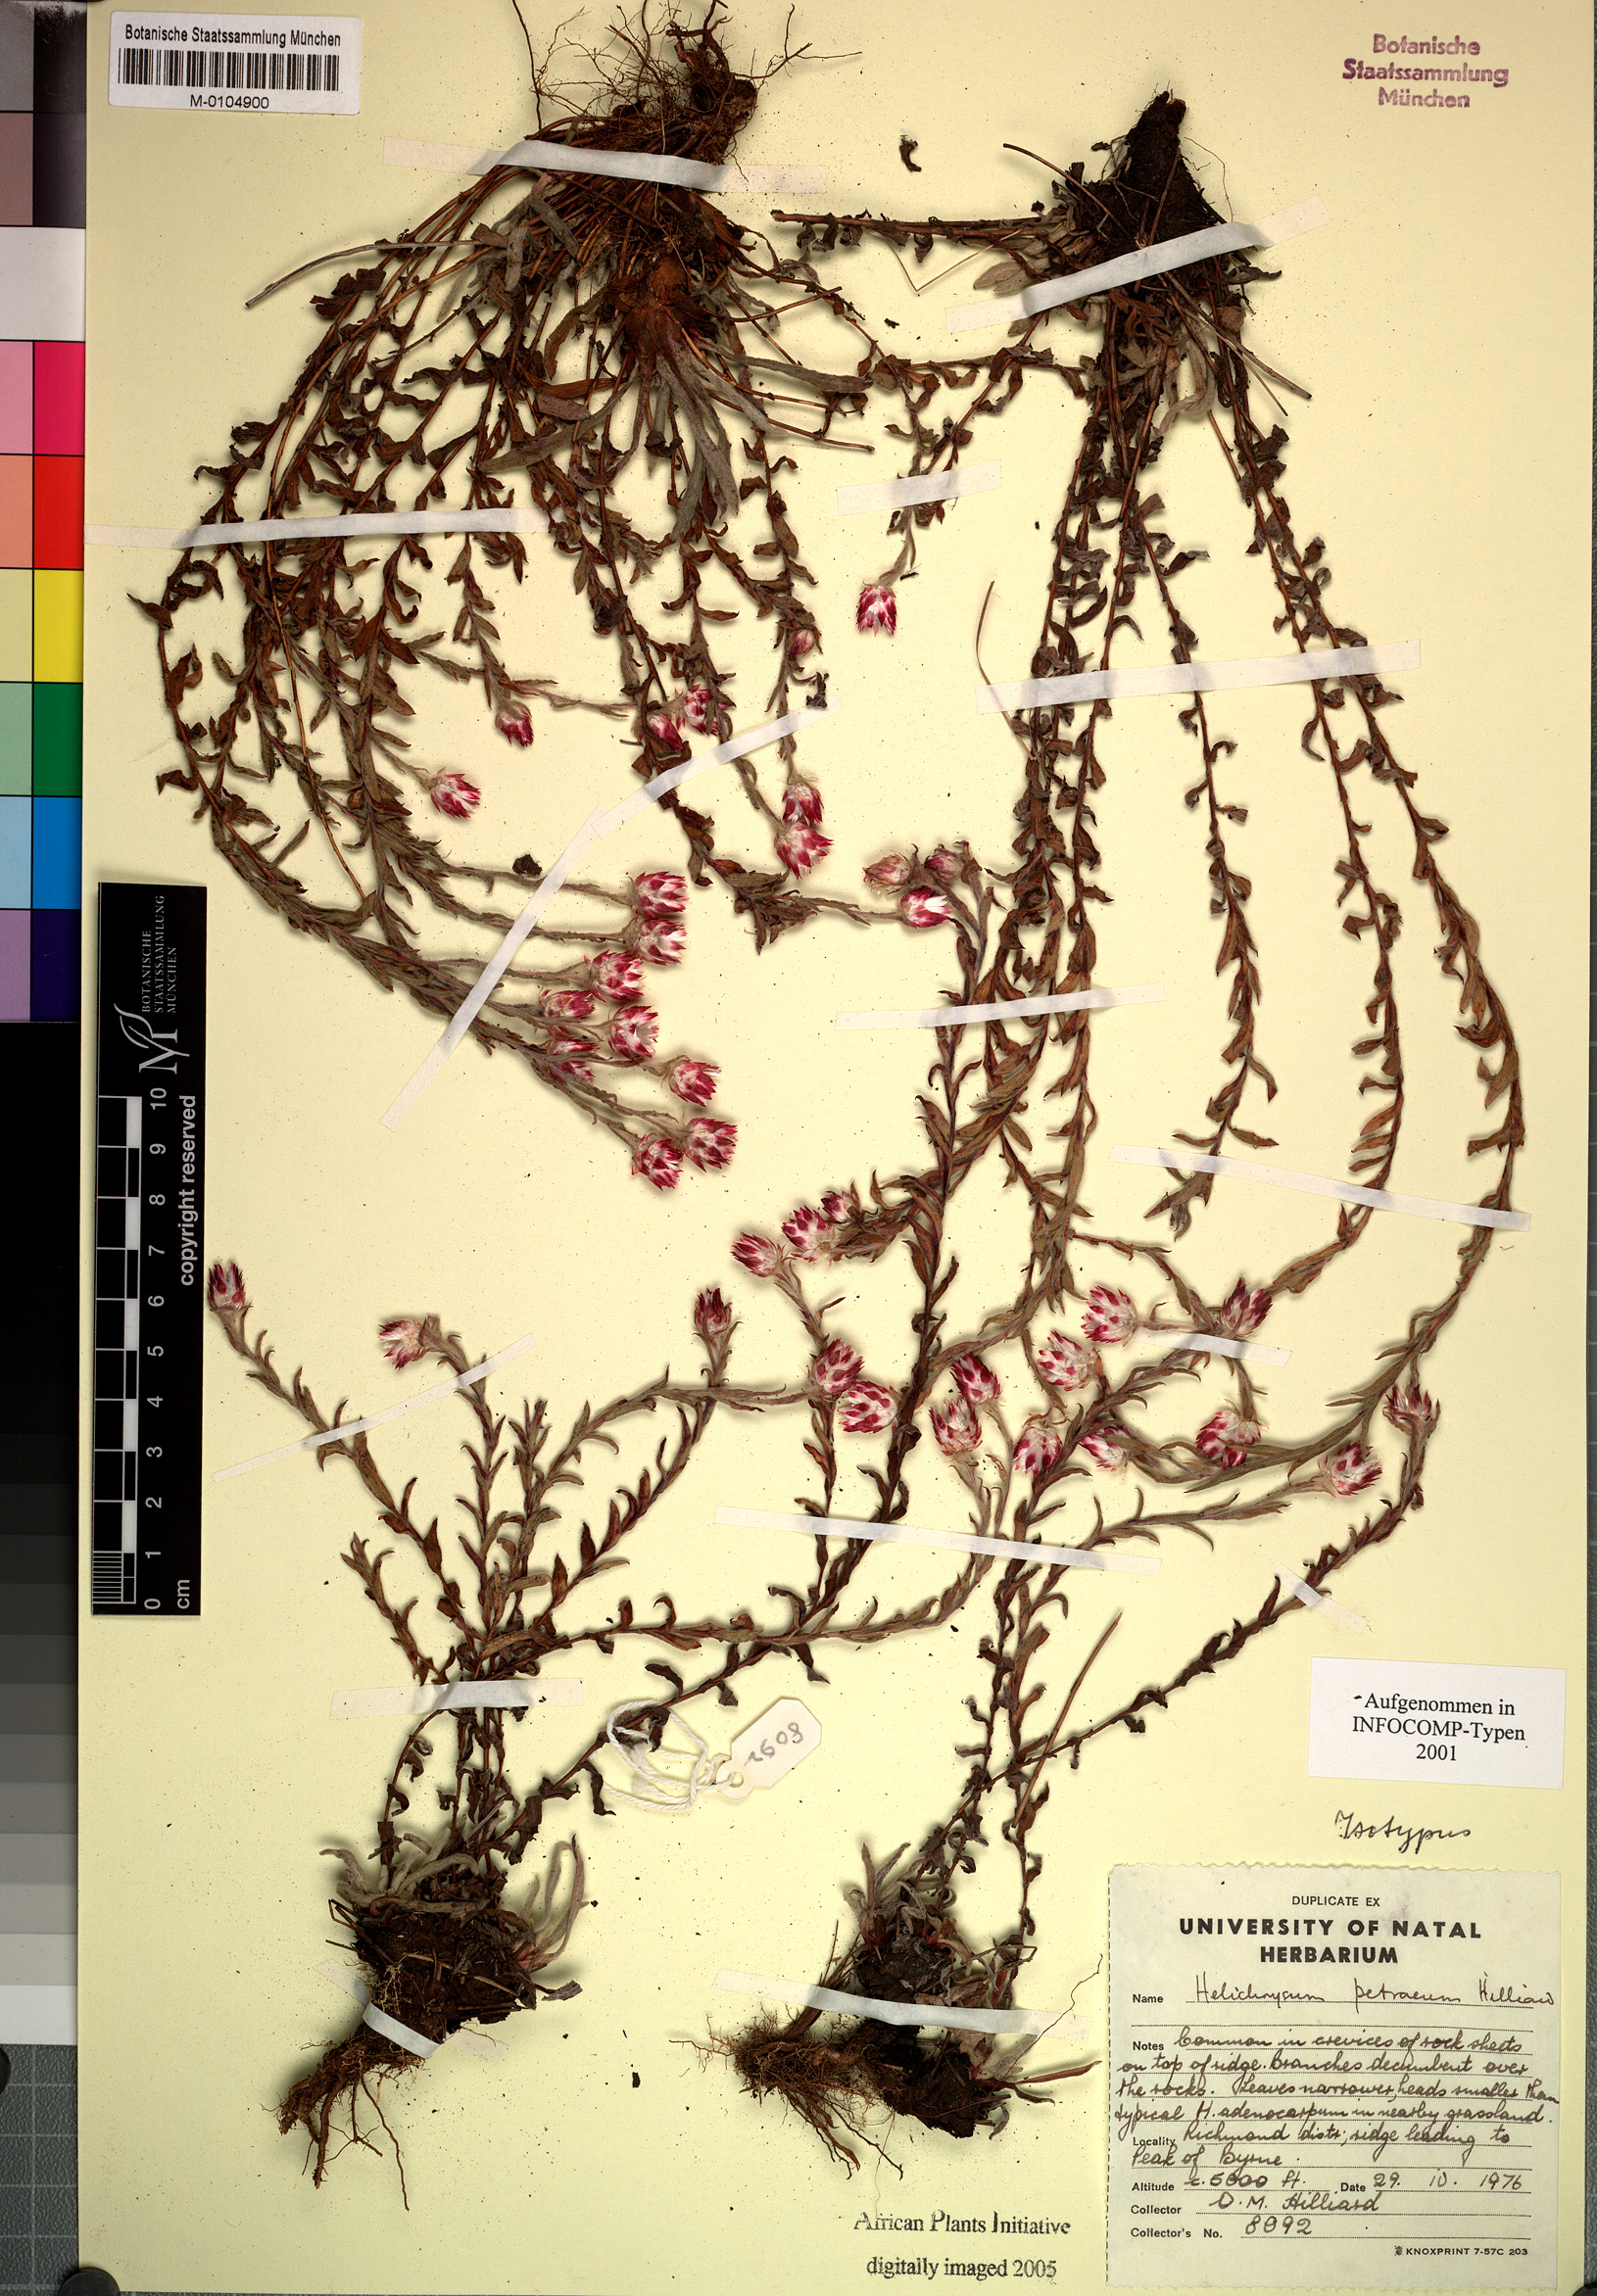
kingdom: Plantae
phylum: Tracheophyta
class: Magnoliopsida
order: Asterales
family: Asteraceae
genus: Helichrysum
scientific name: Helichrysum petraeum
